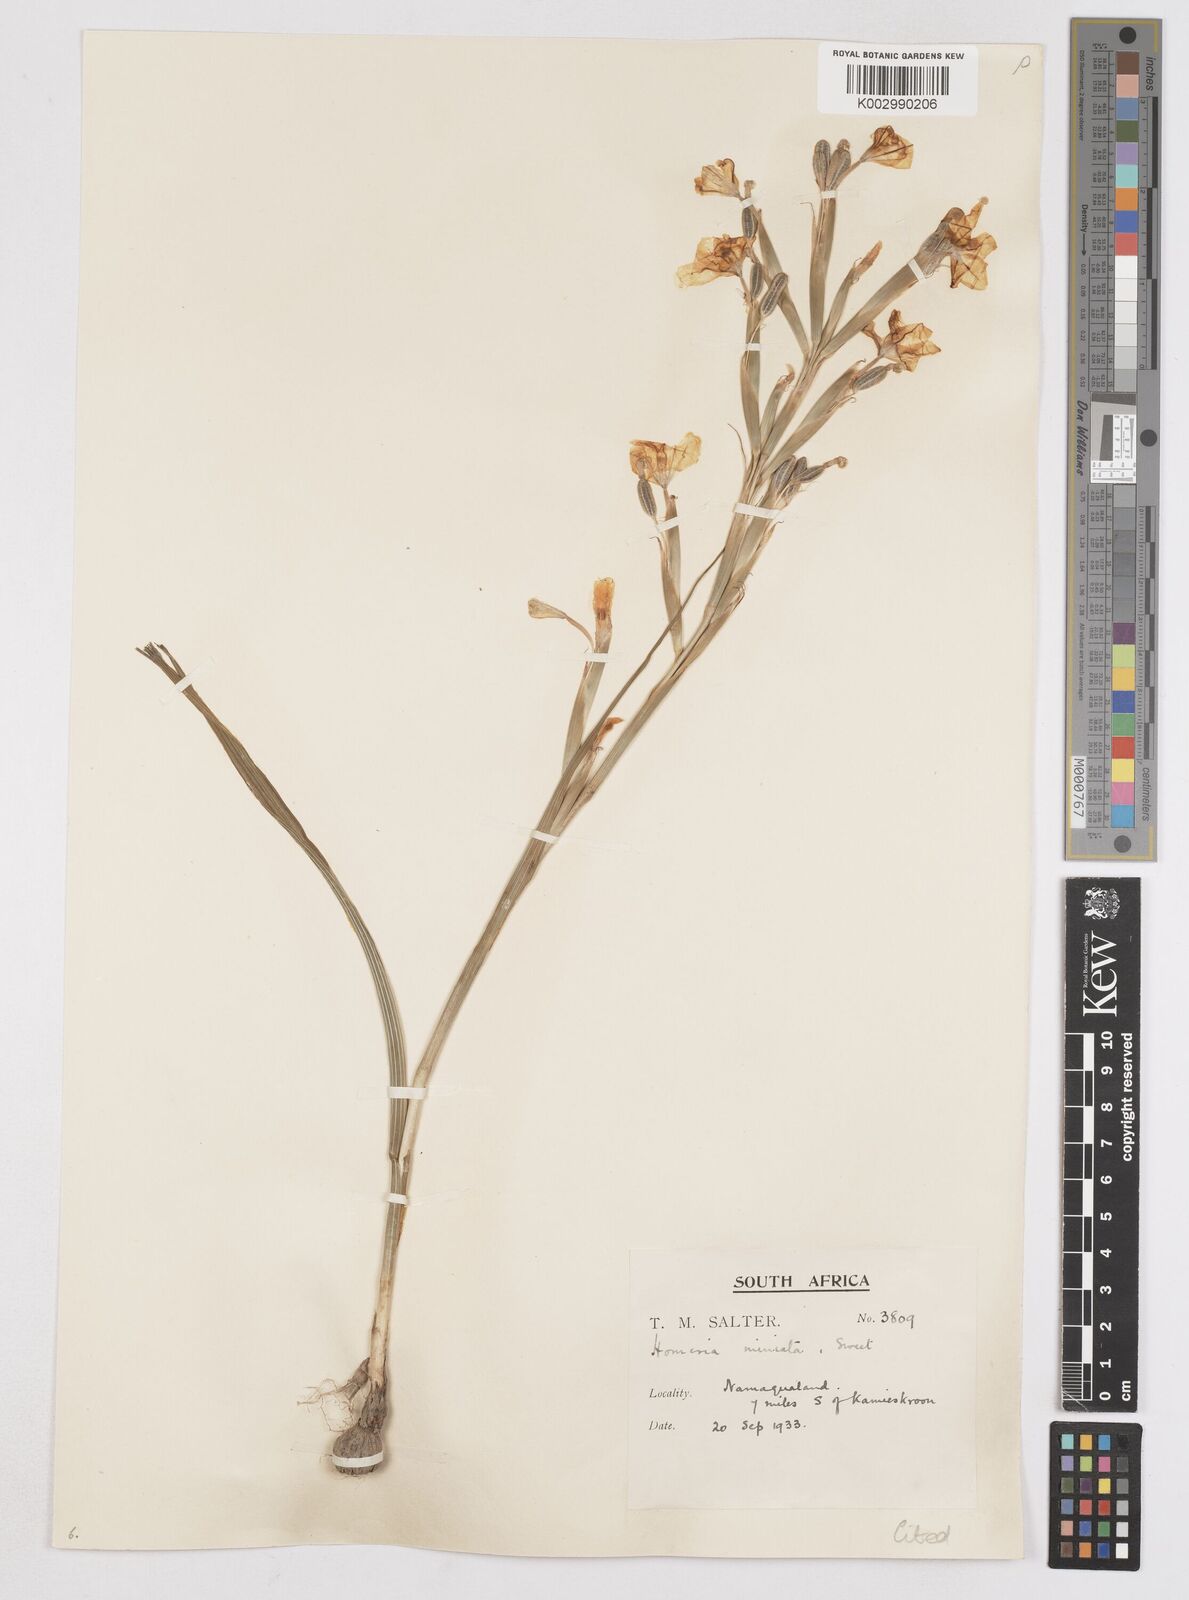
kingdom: Plantae
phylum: Tracheophyta
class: Liliopsida
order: Asparagales
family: Iridaceae
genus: Moraea
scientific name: Moraea miniata
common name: Two-leaf cape-tulip
